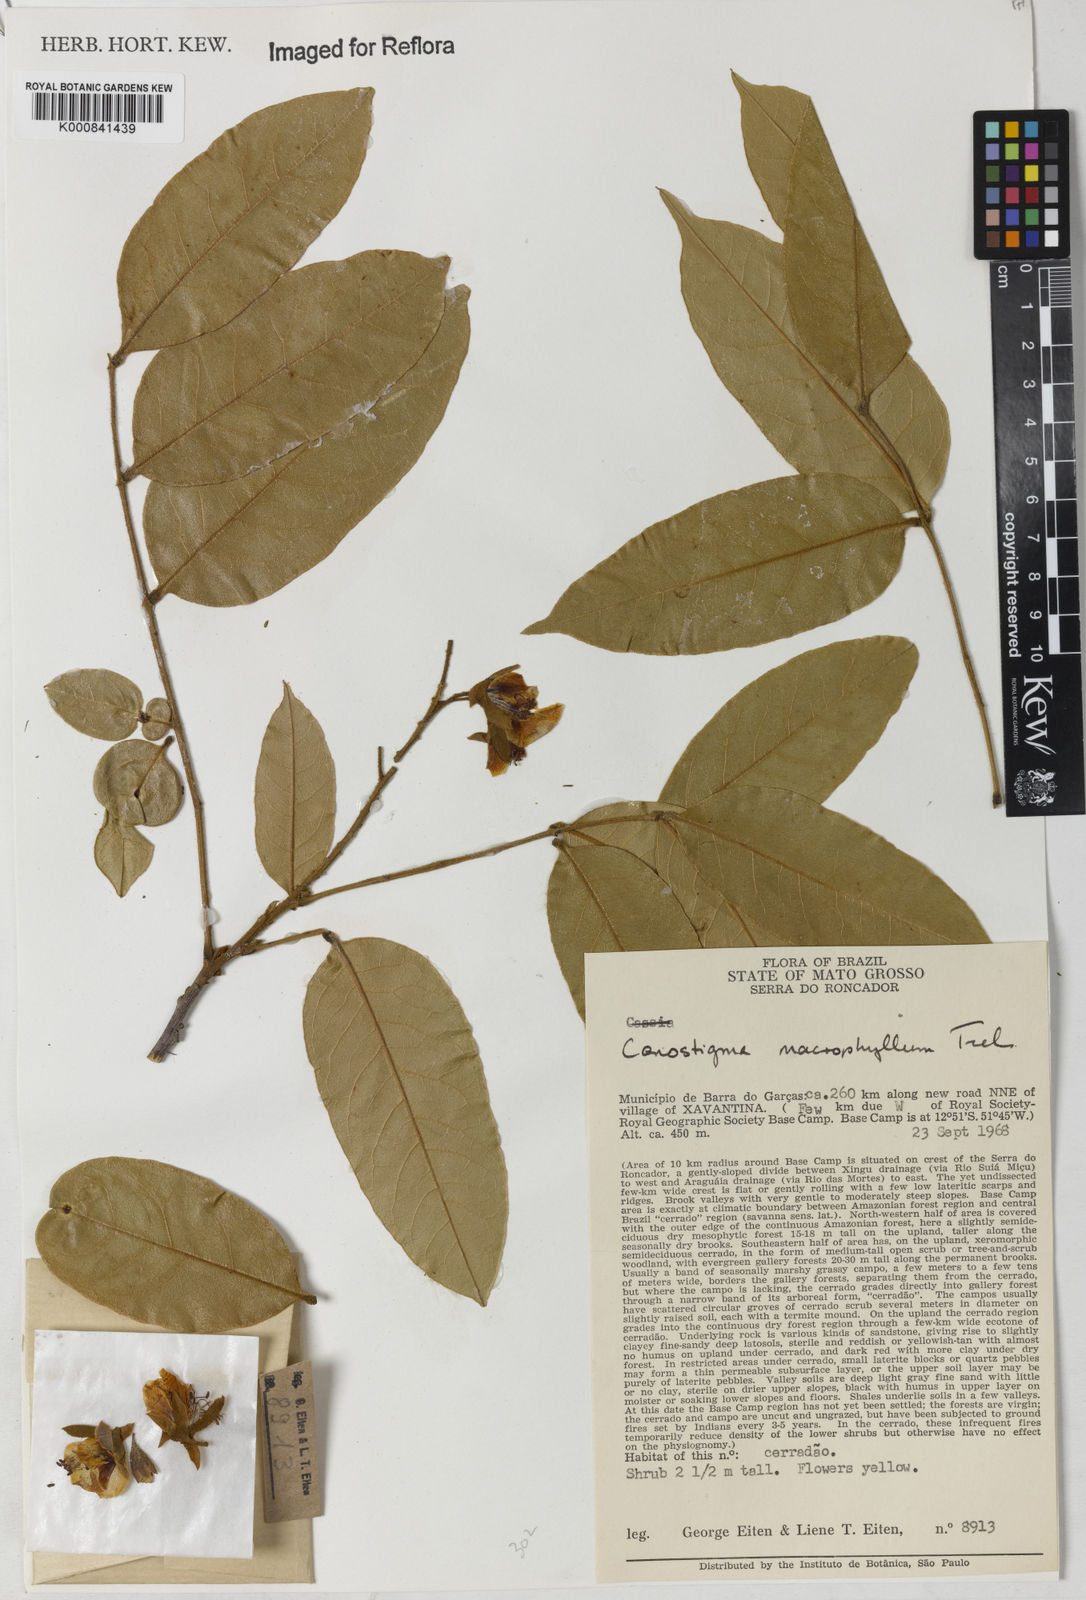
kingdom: Plantae
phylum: Tracheophyta
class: Magnoliopsida
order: Fabales
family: Fabaceae
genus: Cenostigma
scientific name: Cenostigma macrophyllum
